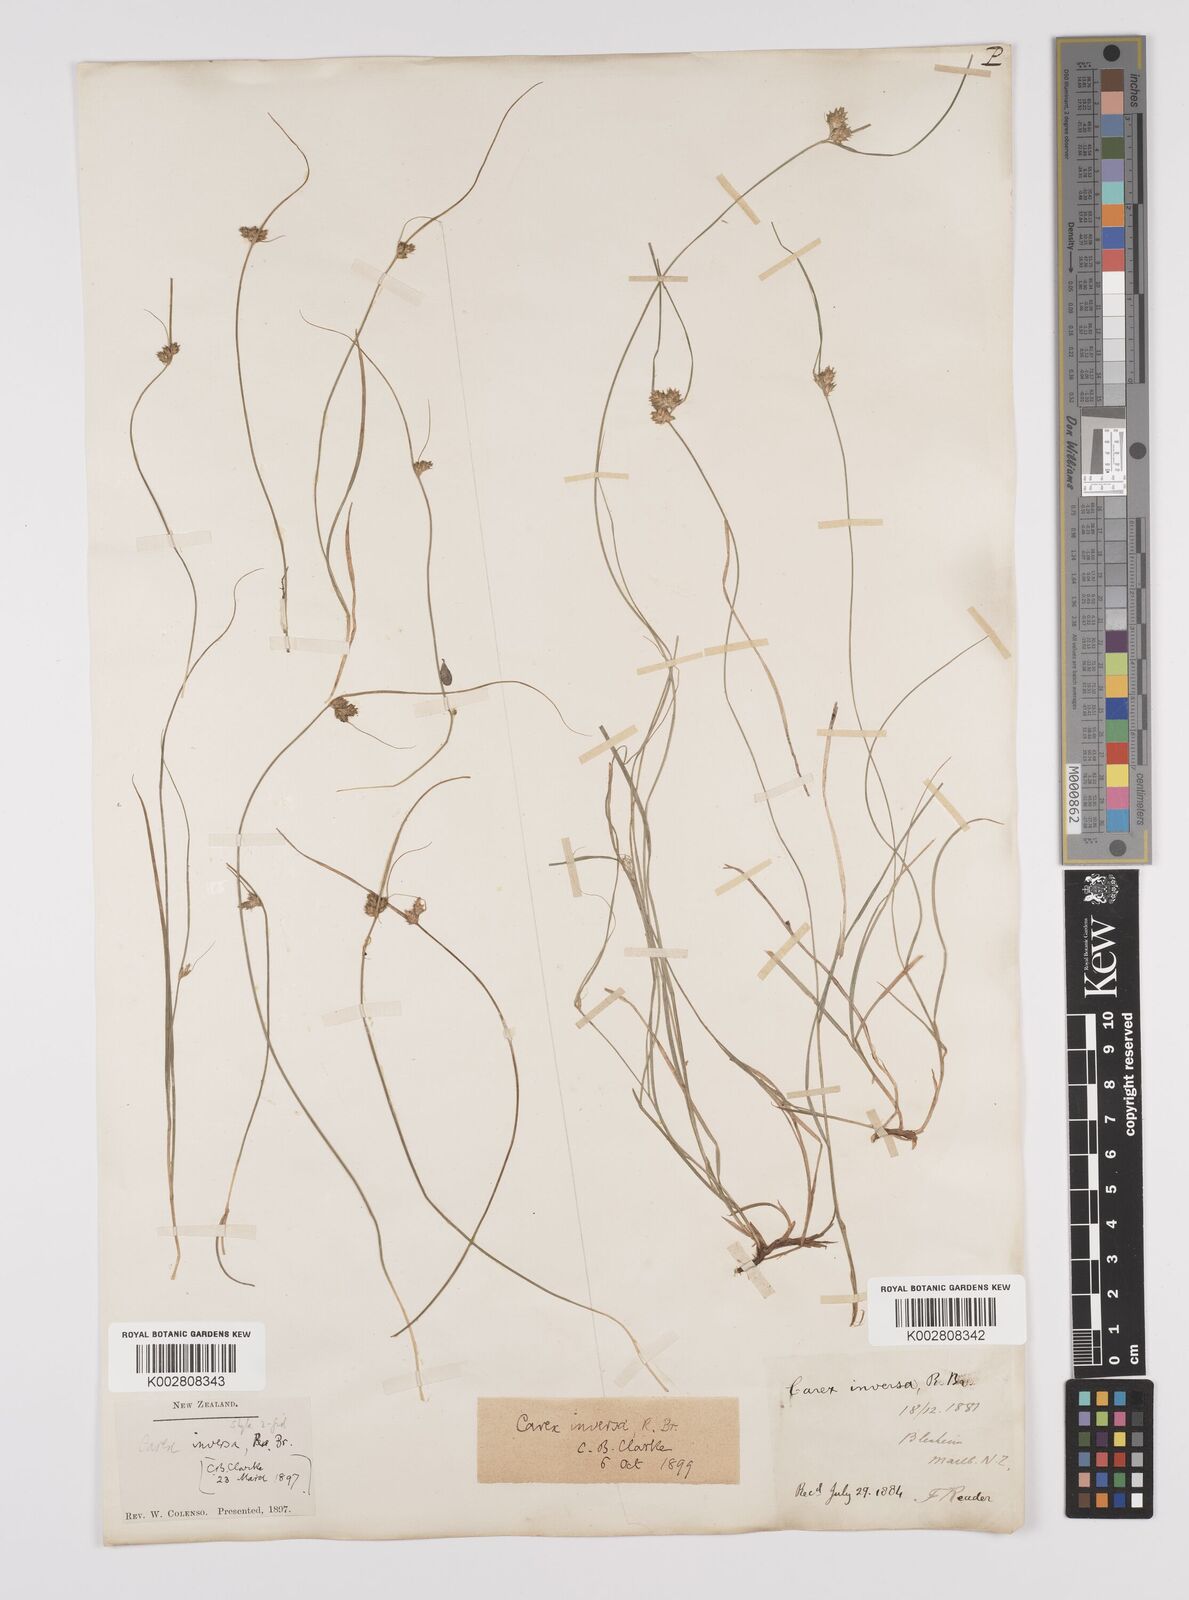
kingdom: Plantae
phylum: Tracheophyta
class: Liliopsida
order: Poales
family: Cyperaceae
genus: Carex
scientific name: Carex inversa
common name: Knob sedge
